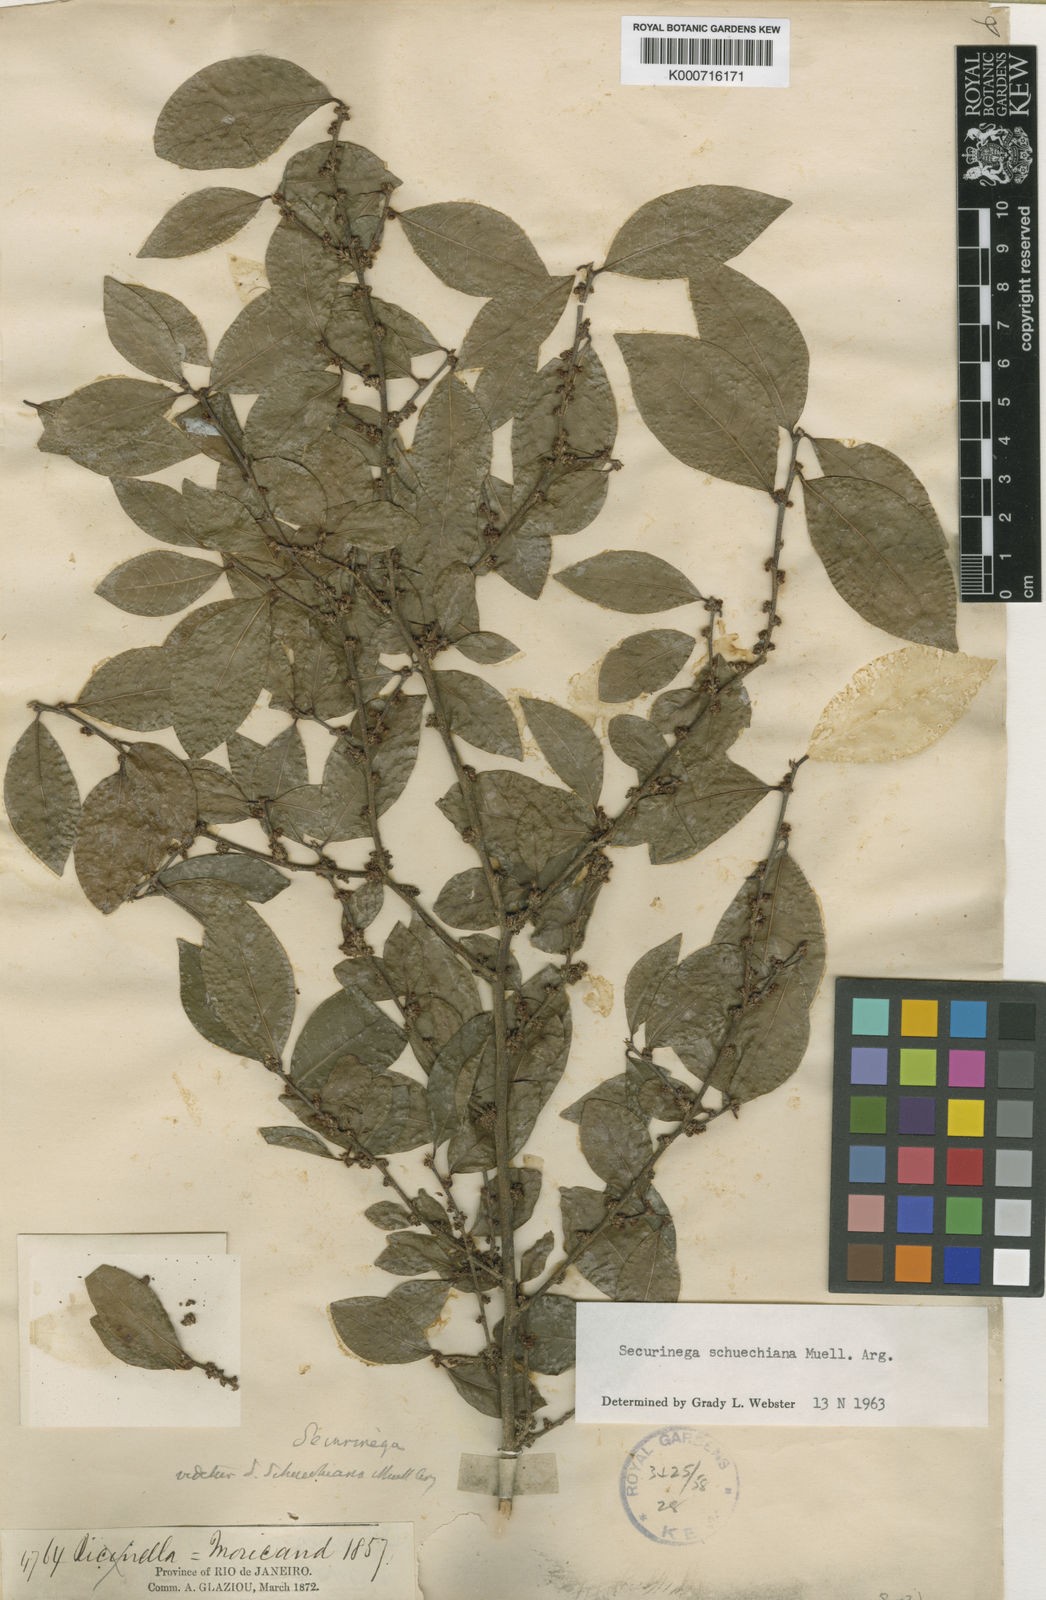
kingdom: Plantae
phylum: Tracheophyta
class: Magnoliopsida
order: Malpighiales
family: Phyllanthaceae
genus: Flueggea
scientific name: Flueggea
